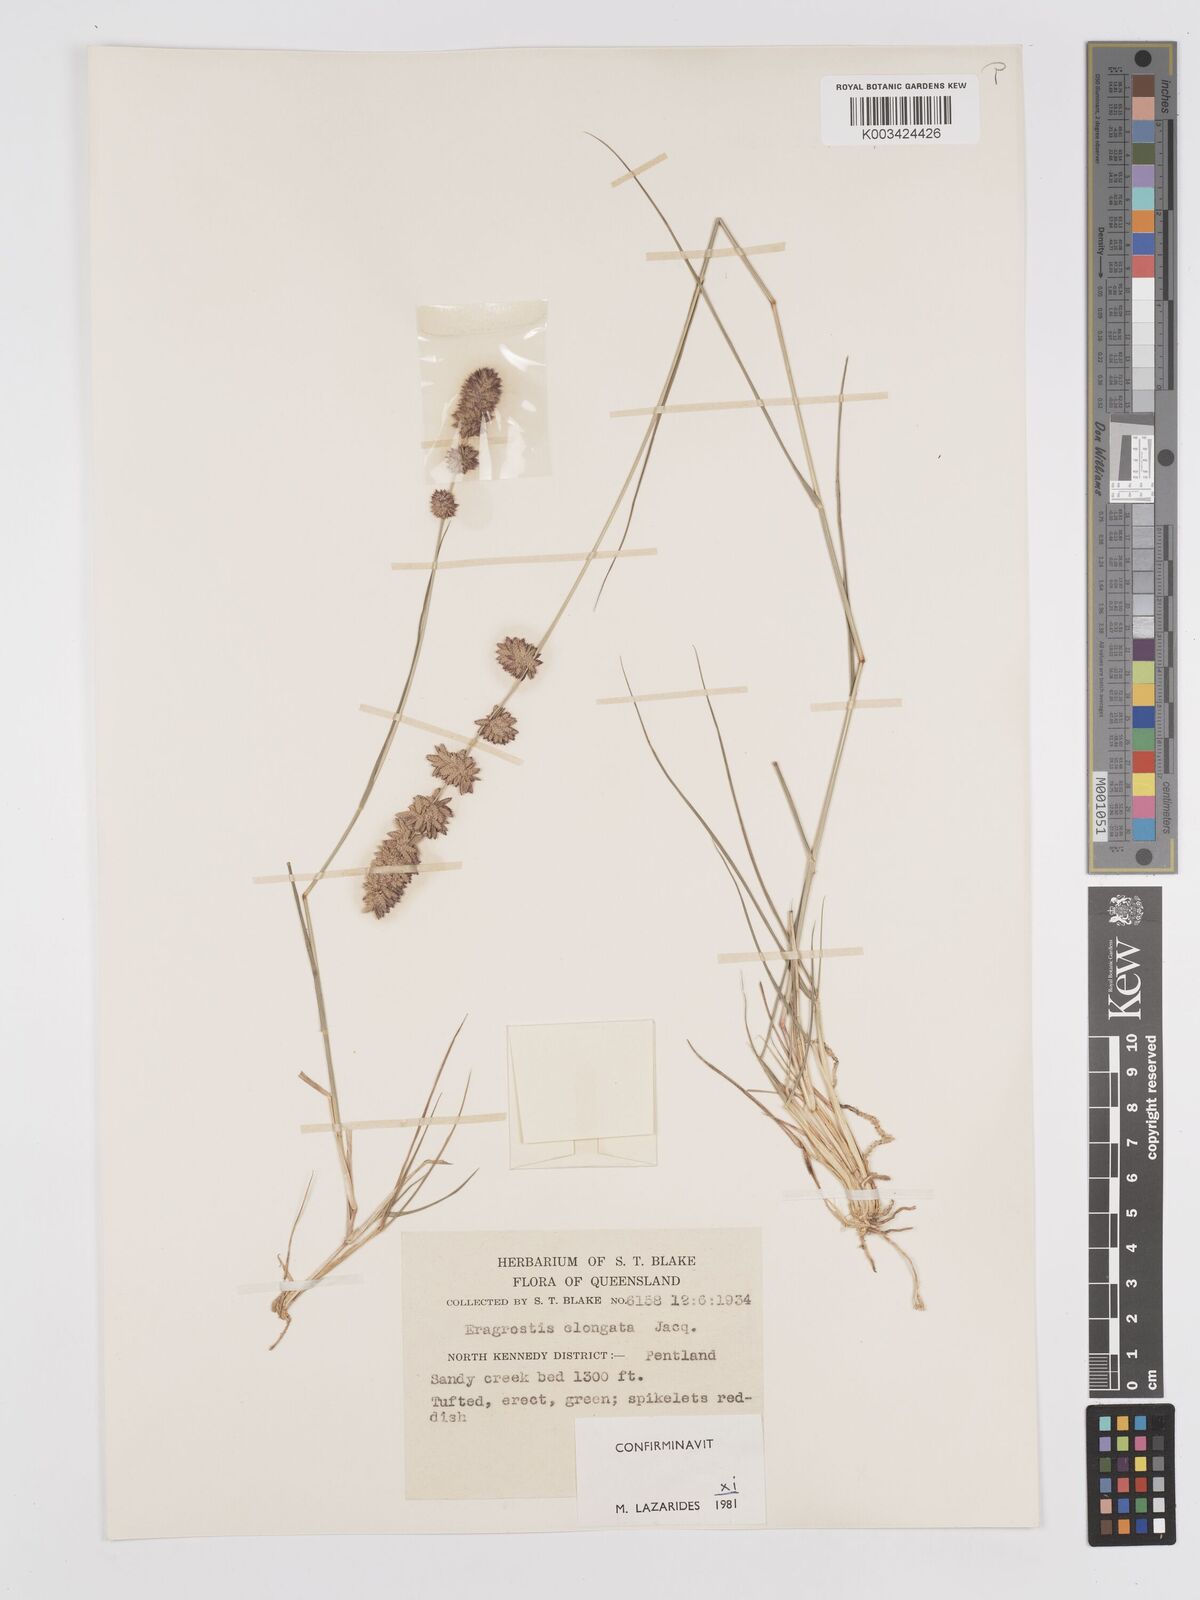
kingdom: Plantae
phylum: Tracheophyta
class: Liliopsida
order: Poales
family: Poaceae
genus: Eragrostis
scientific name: Eragrostis elongata
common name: Long lovegrass
